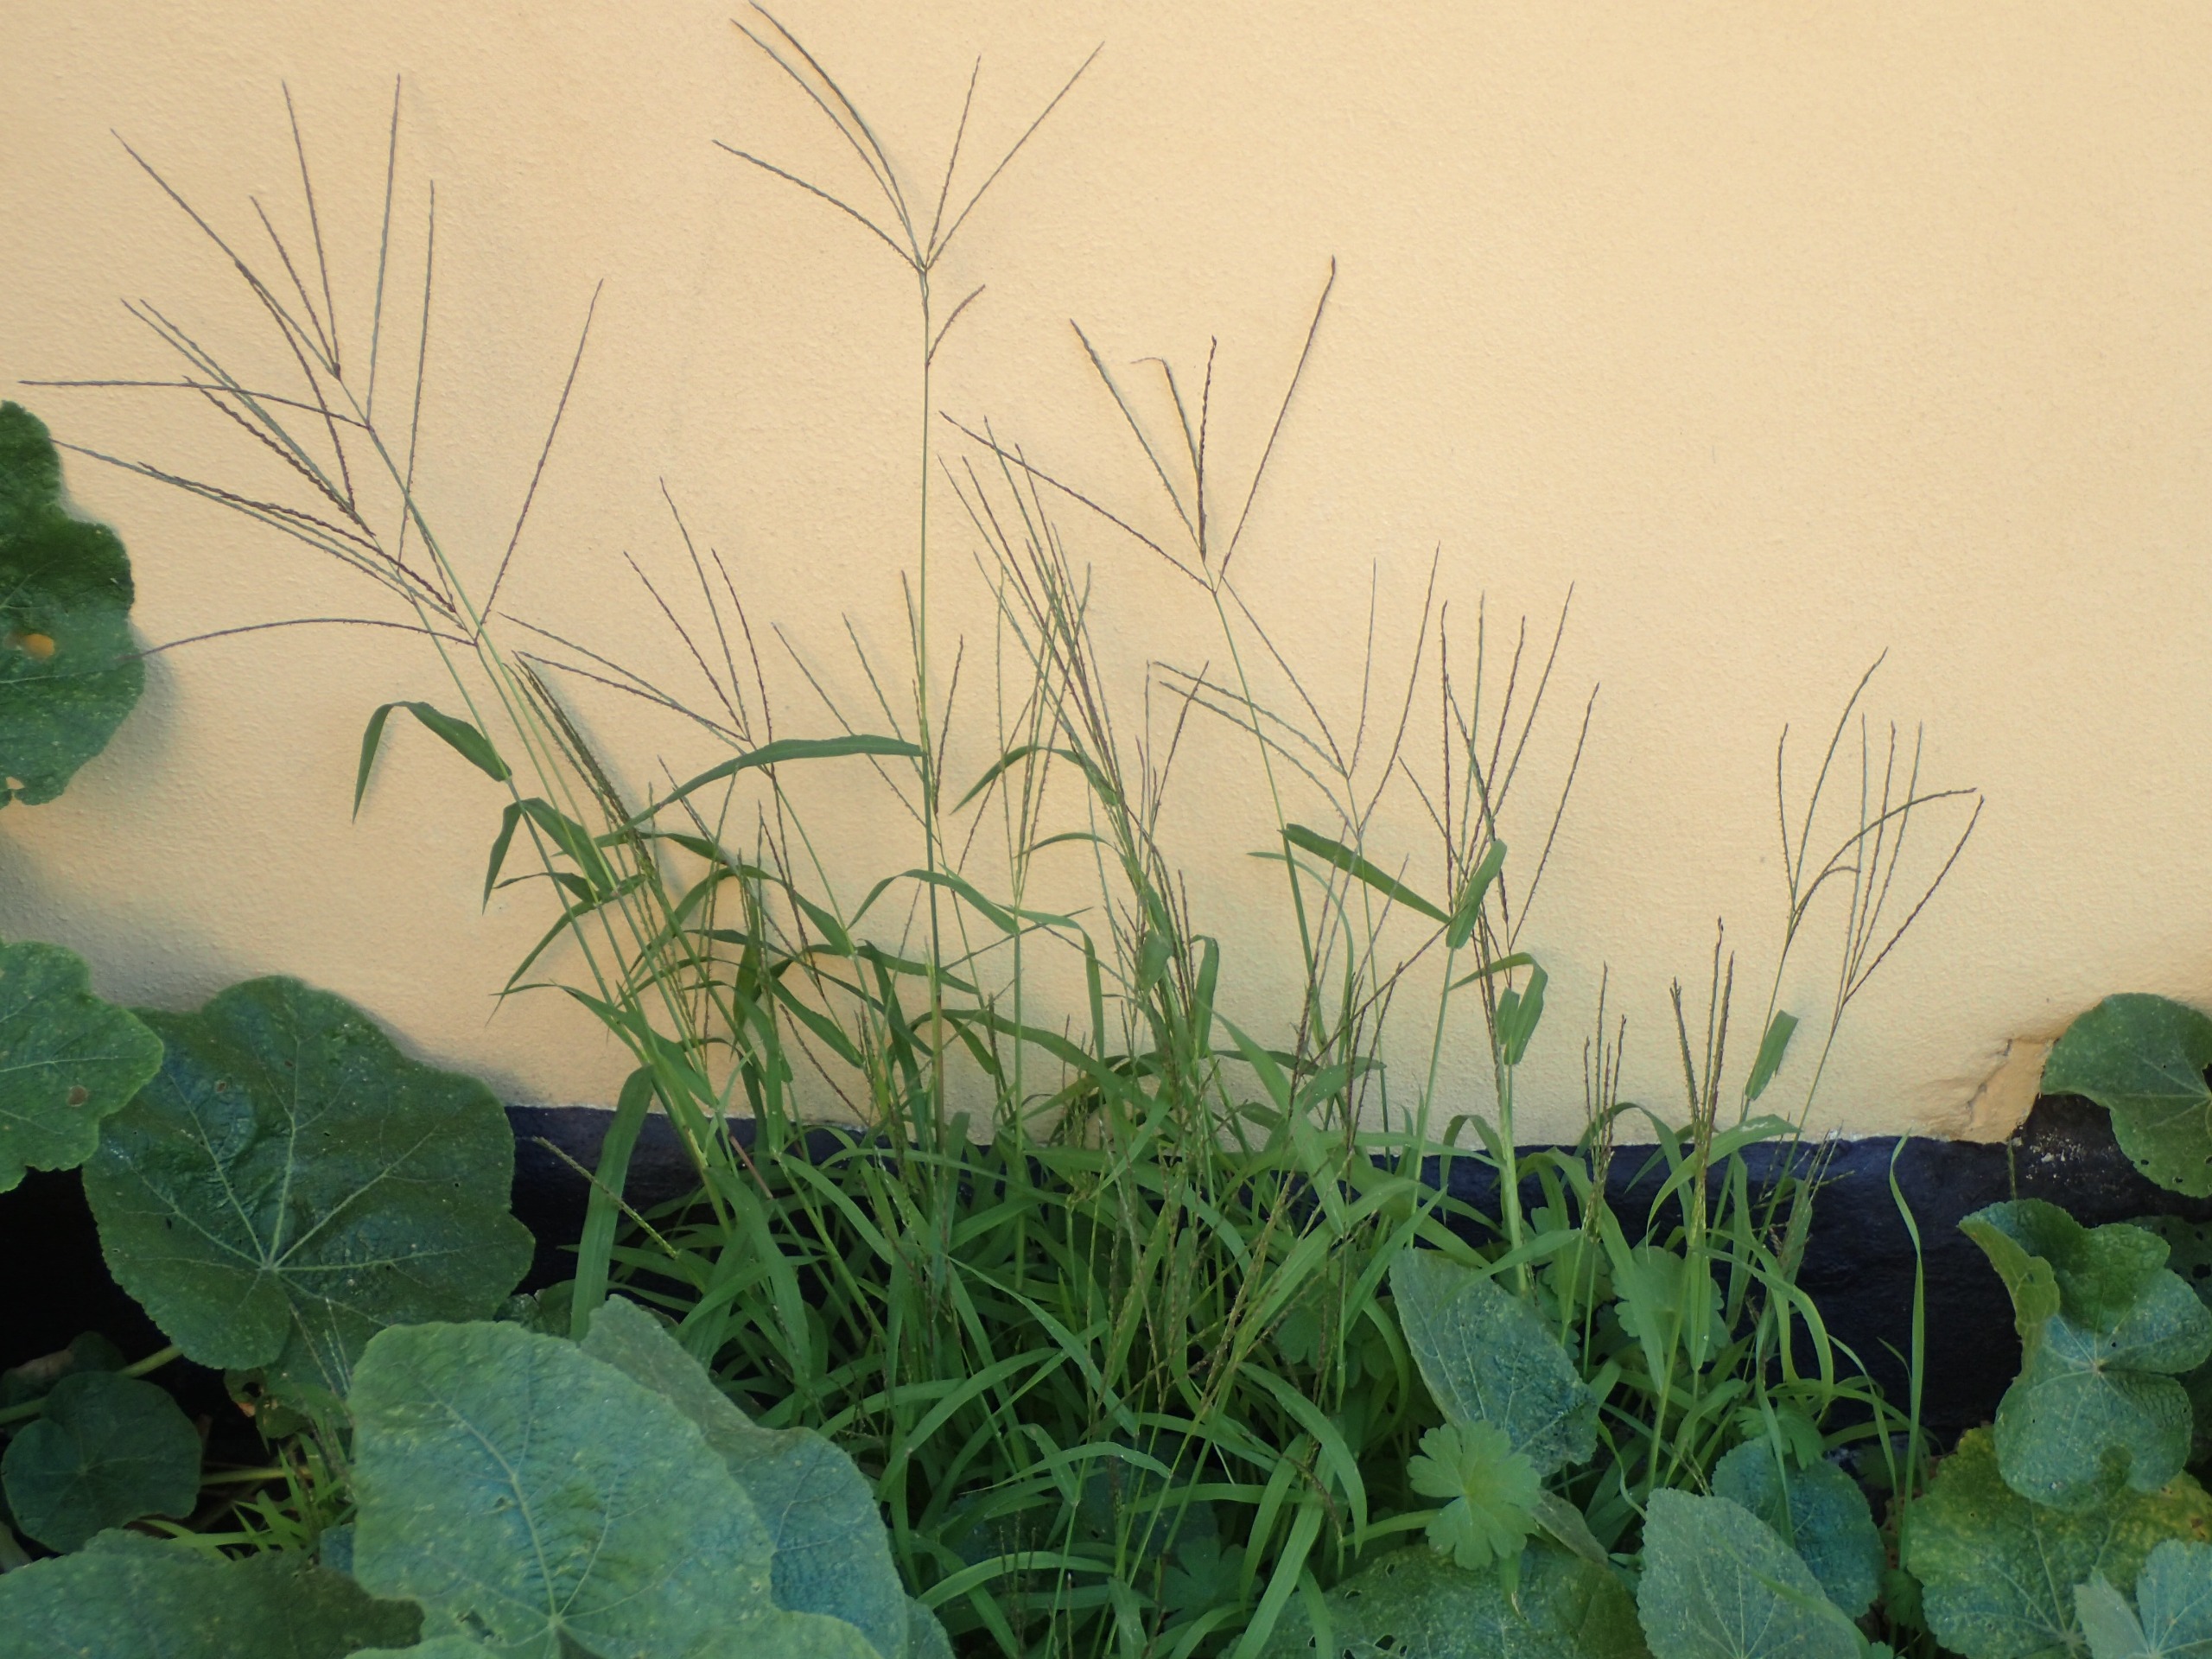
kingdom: Plantae
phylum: Tracheophyta
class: Liliopsida
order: Poales
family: Poaceae
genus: Digitaria
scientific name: Digitaria sanguinalis
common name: Blodhirse
